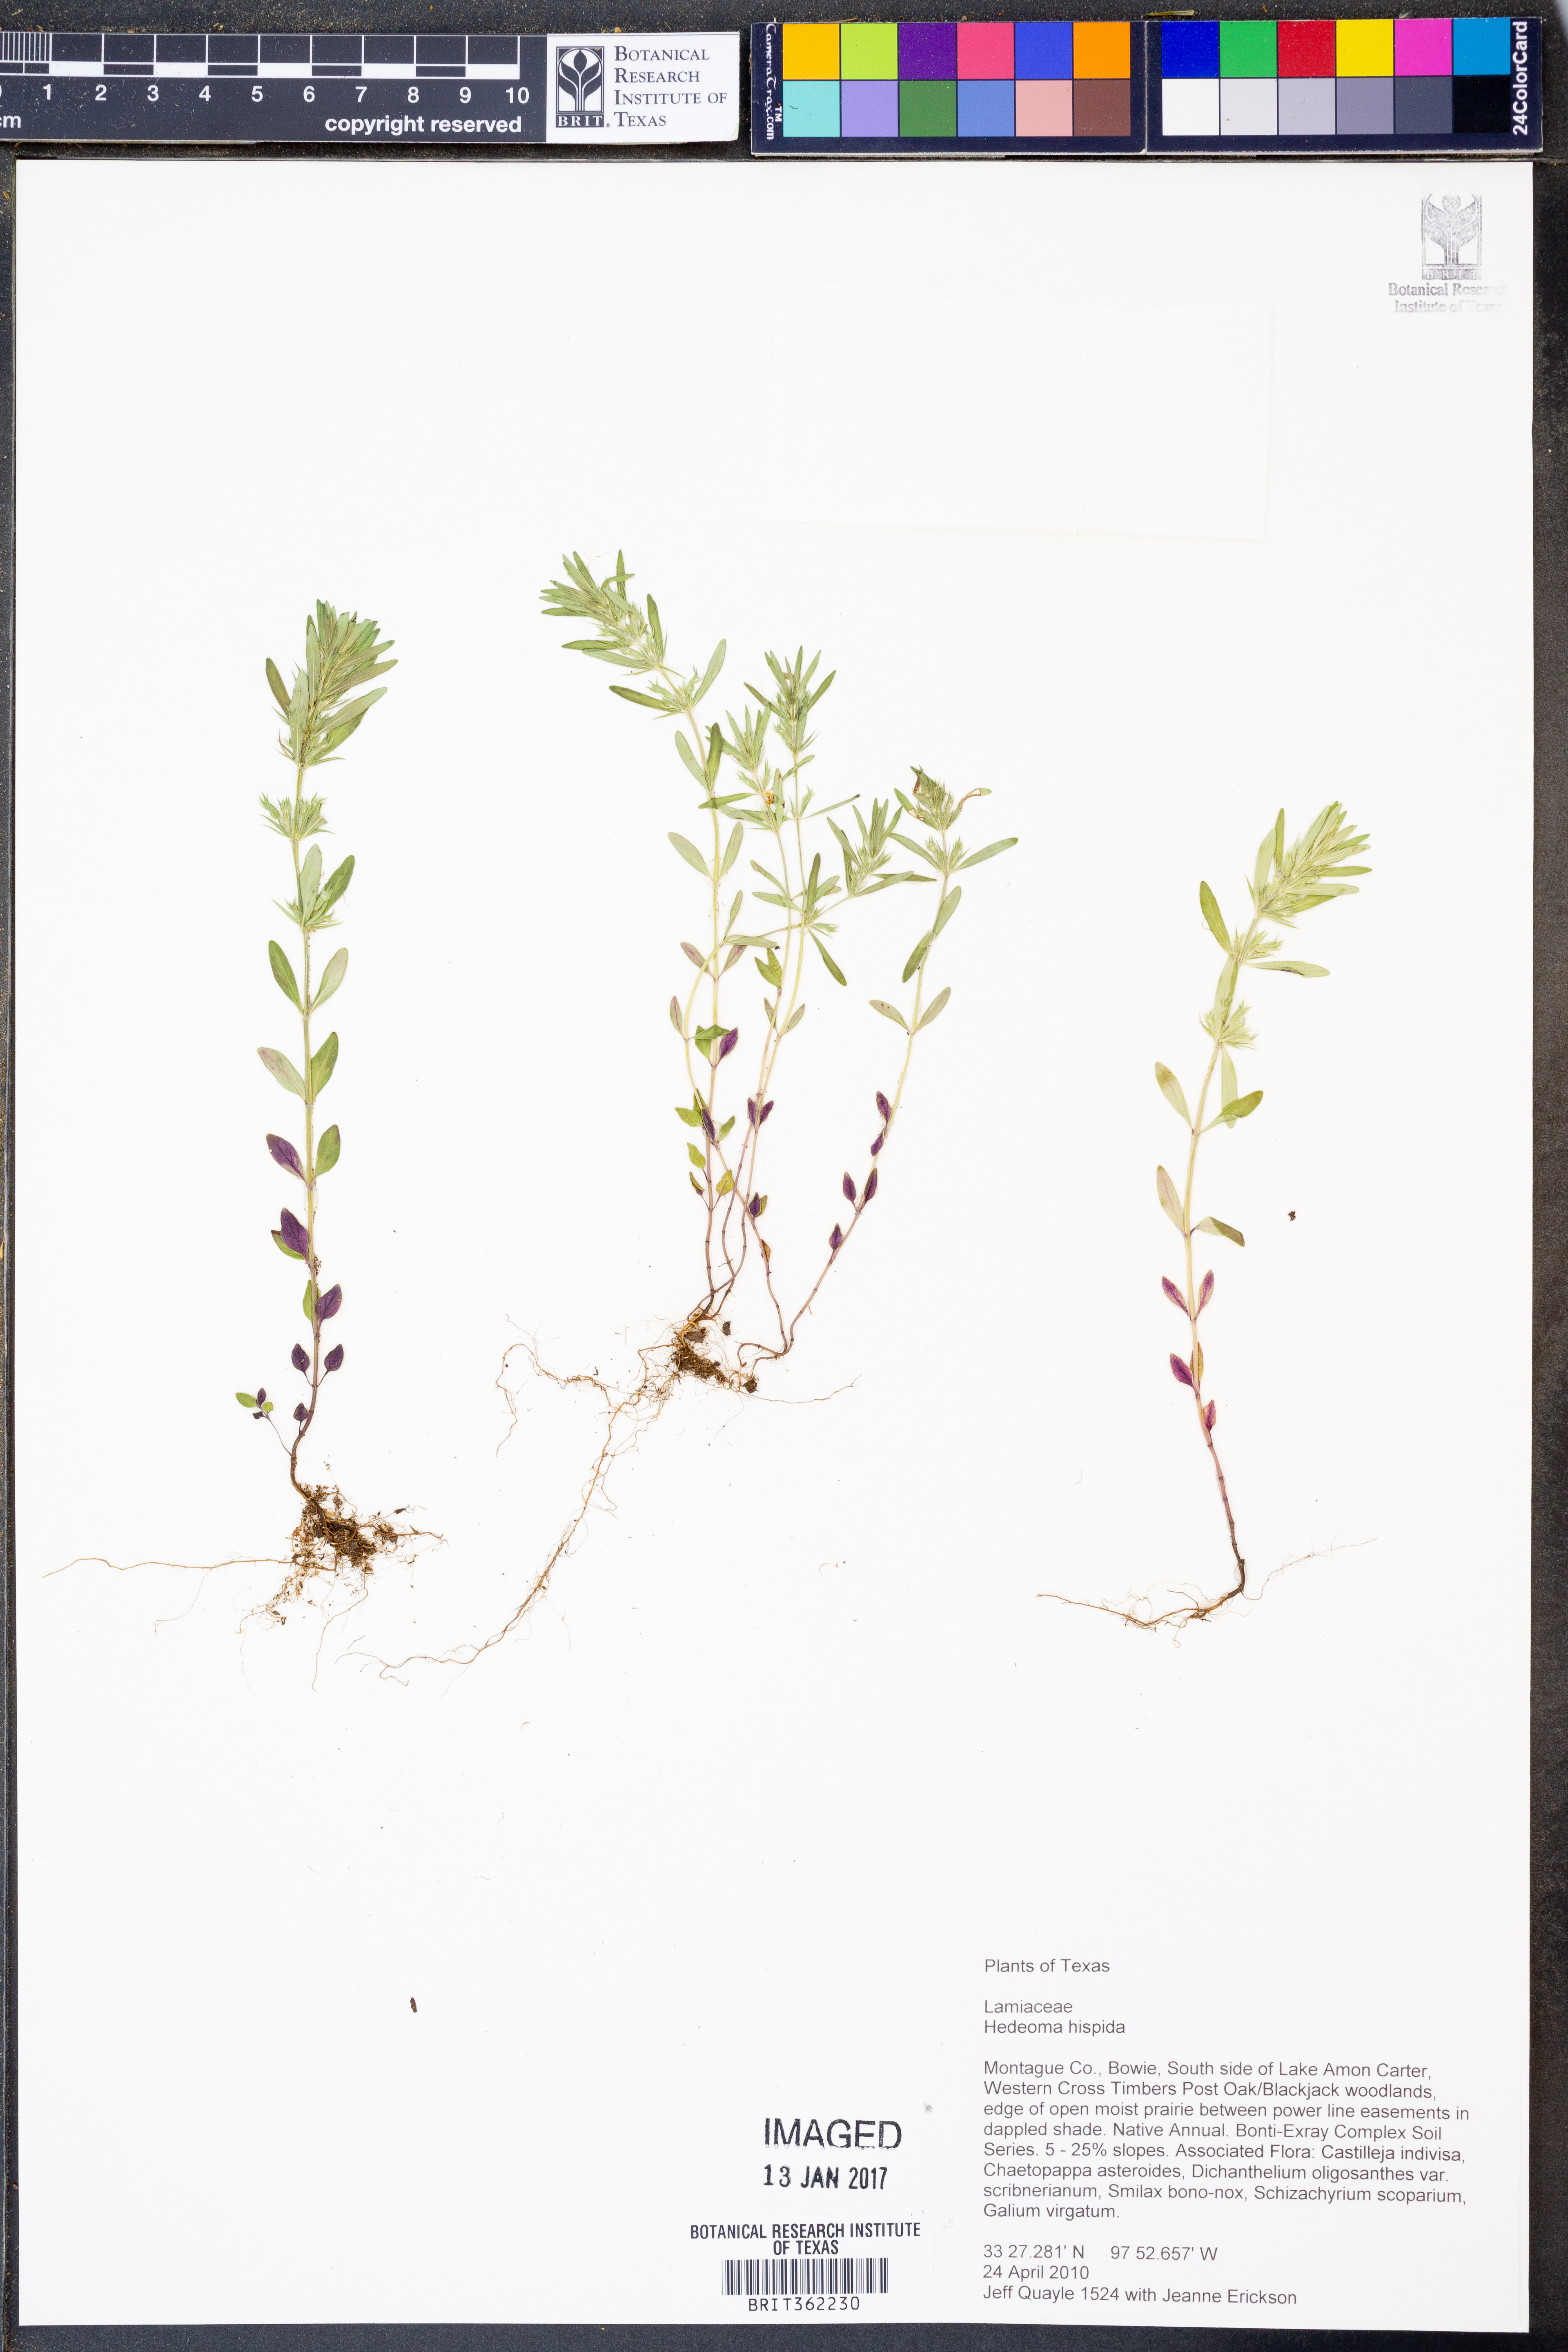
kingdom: Plantae
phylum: Tracheophyta
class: Magnoliopsida
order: Lamiales
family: Lamiaceae
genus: Hedeoma
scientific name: Hedeoma hispida
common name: Mock pennyroyal
